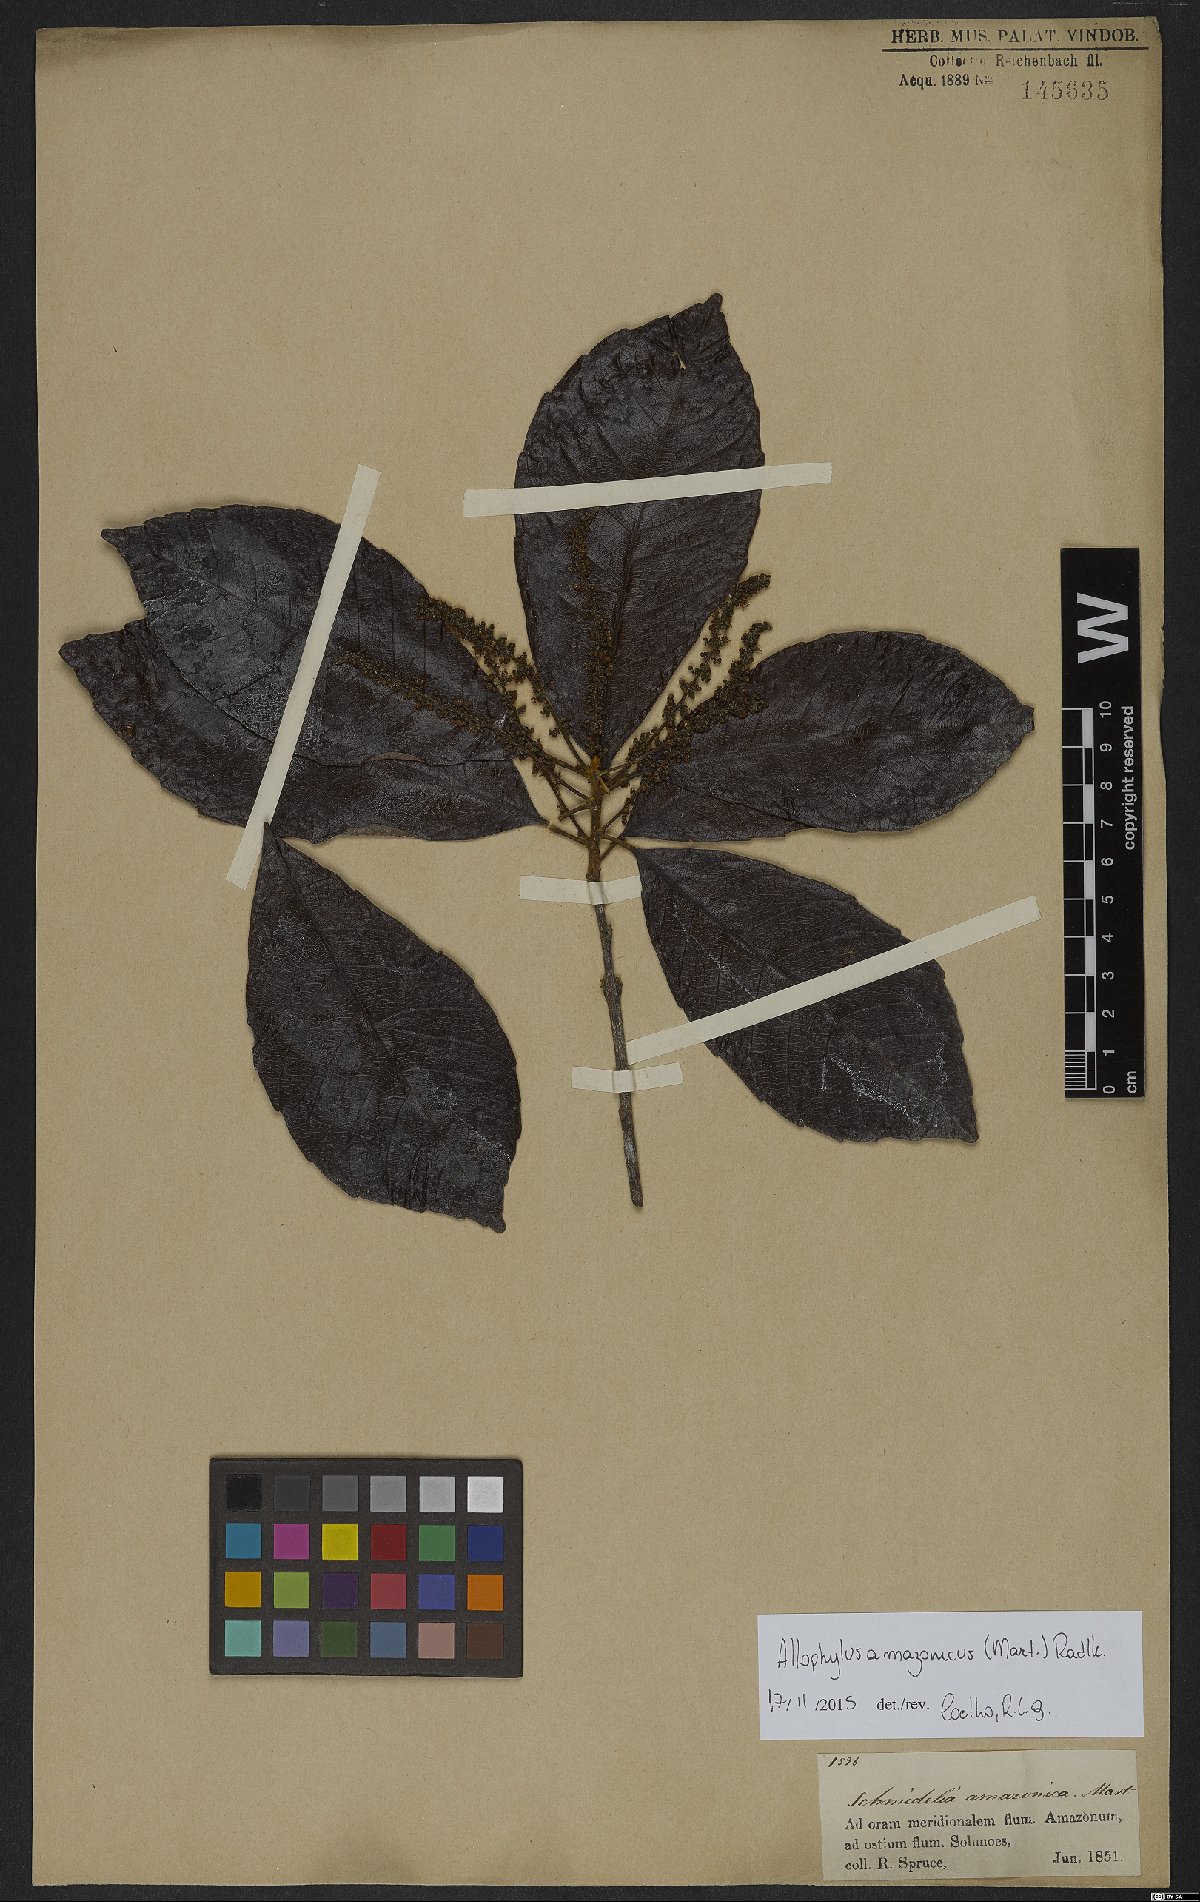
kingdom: Plantae
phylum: Tracheophyta
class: Magnoliopsida
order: Sapindales
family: Sapindaceae
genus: Allophylus
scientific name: Allophylus amazonicus
